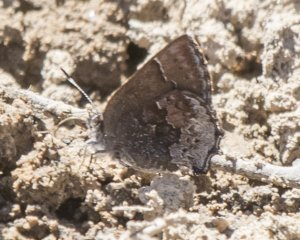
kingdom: Animalia
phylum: Arthropoda
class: Insecta
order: Lepidoptera
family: Lycaenidae
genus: Callophrys
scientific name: Callophrys polios
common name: Hoary Elfin
